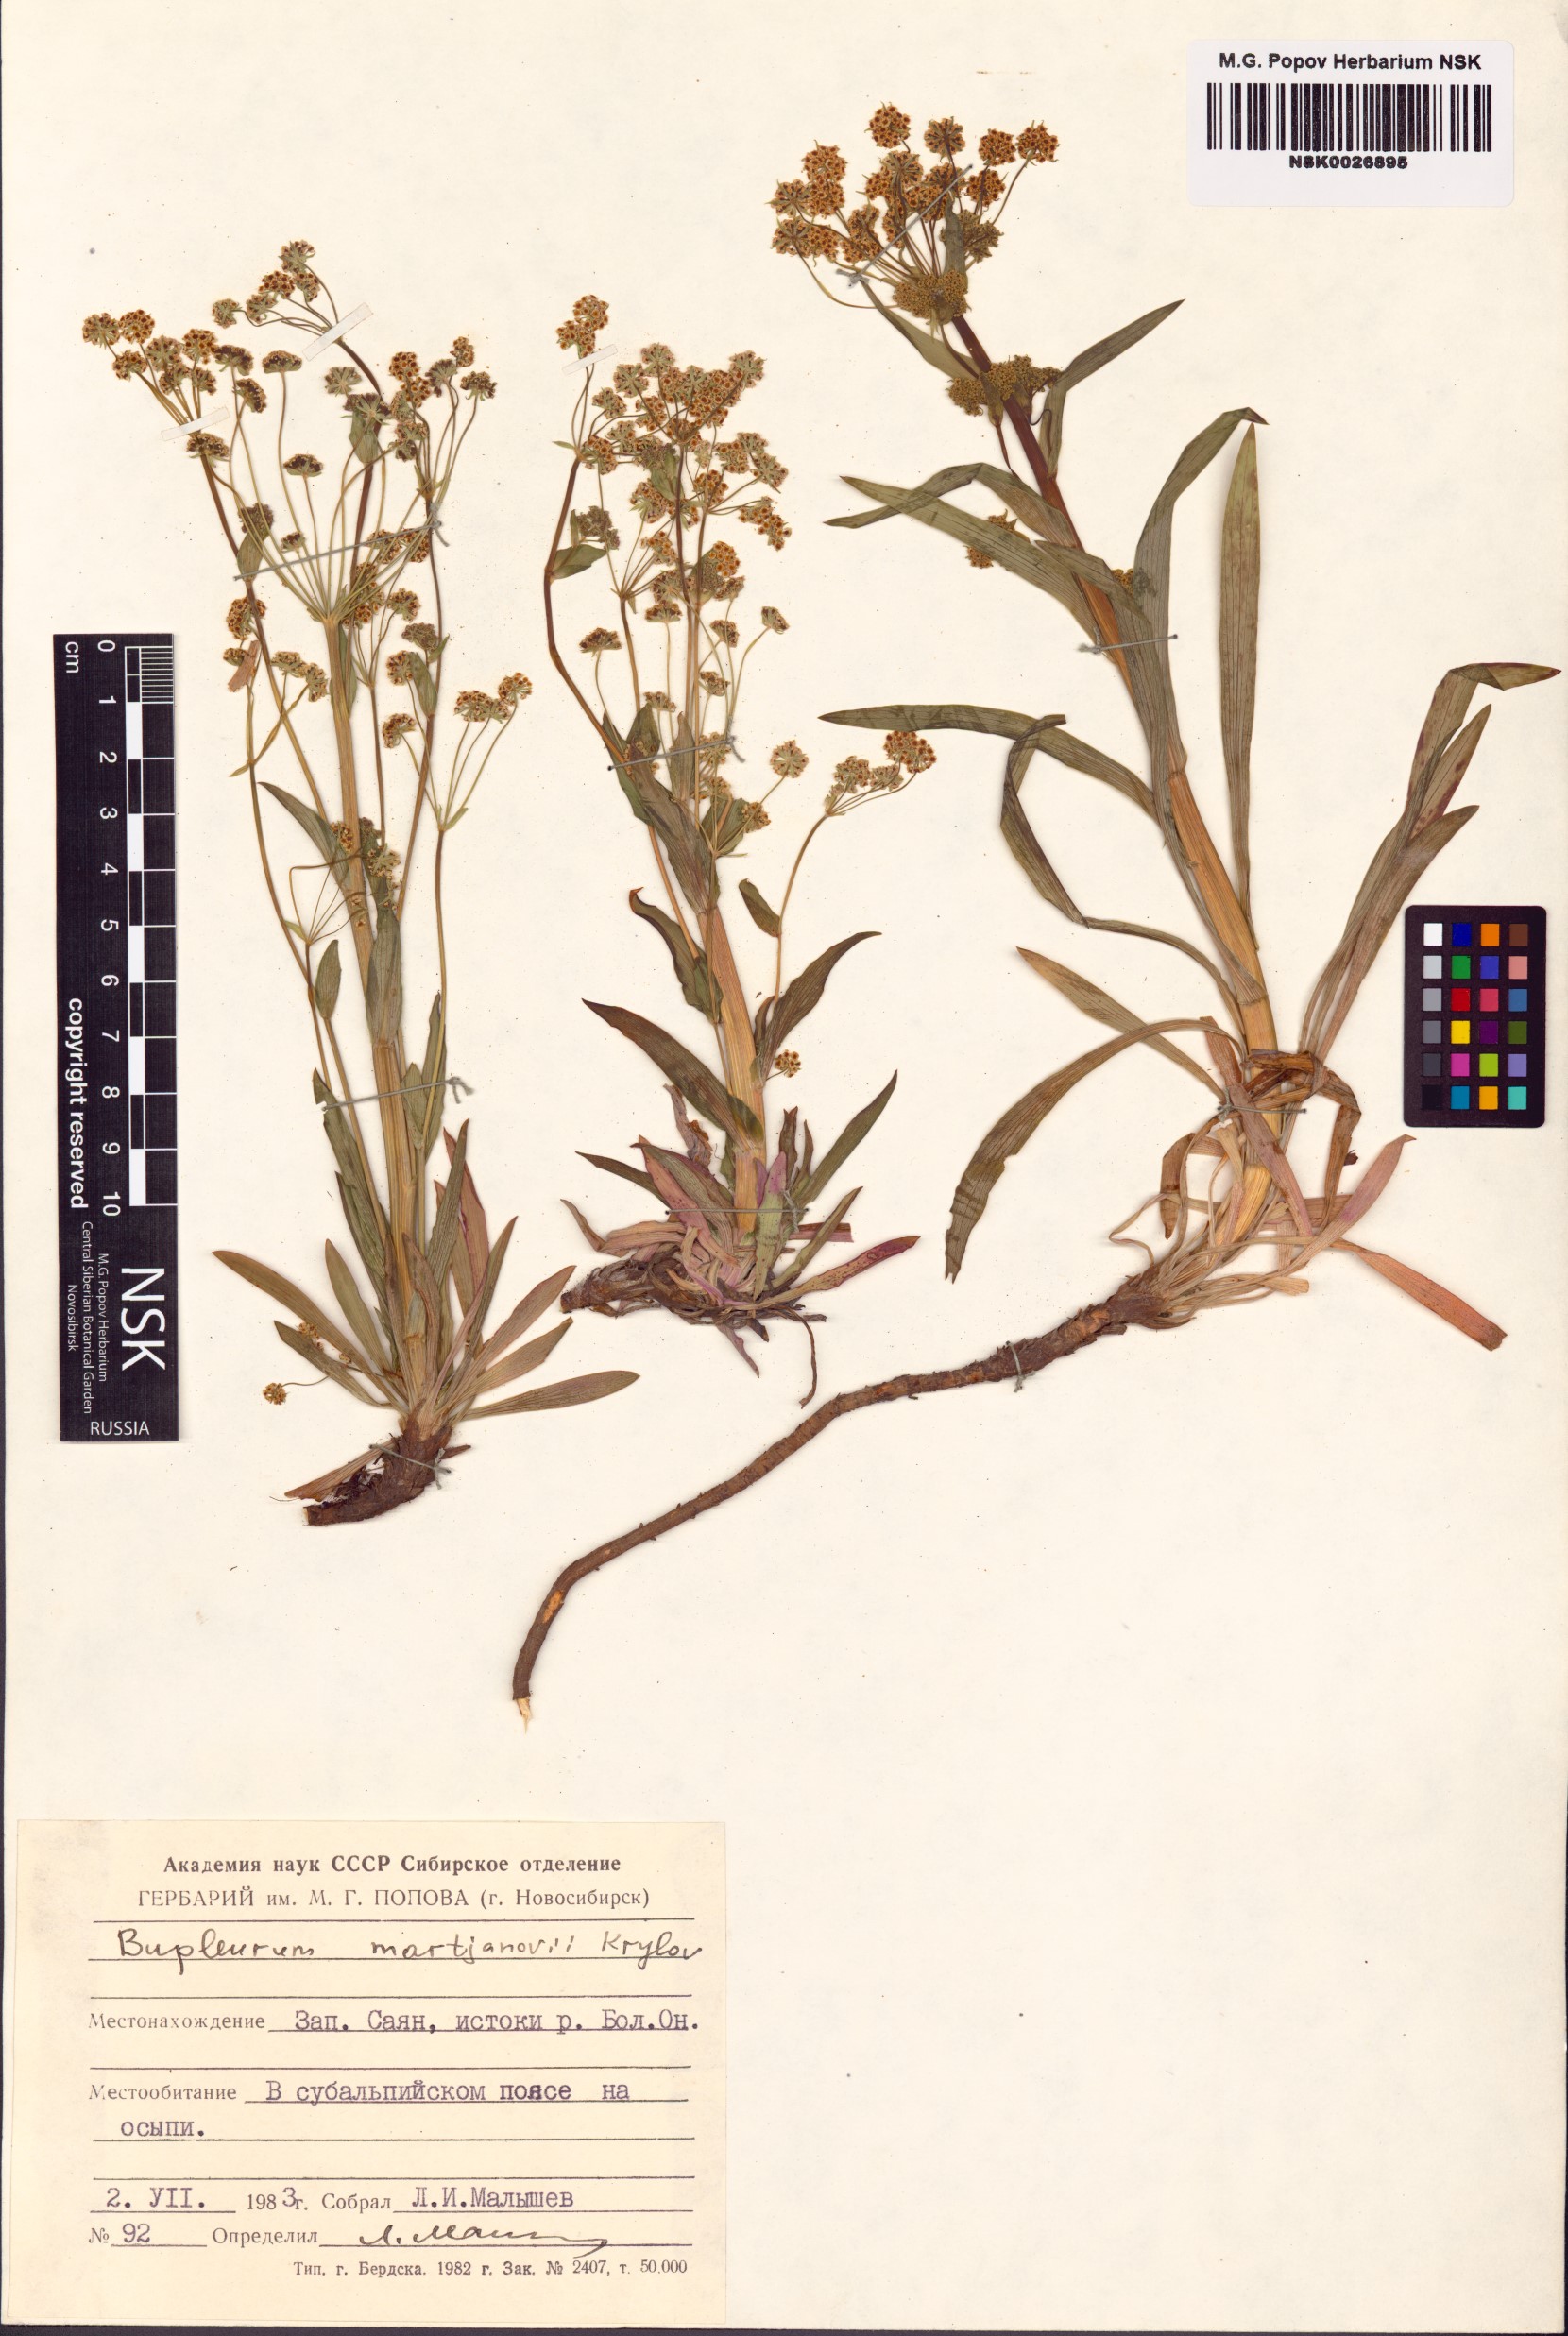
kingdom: Plantae
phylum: Tracheophyta
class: Magnoliopsida
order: Apiales
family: Apiaceae
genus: Bupleurum
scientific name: Bupleurum martjanovii
